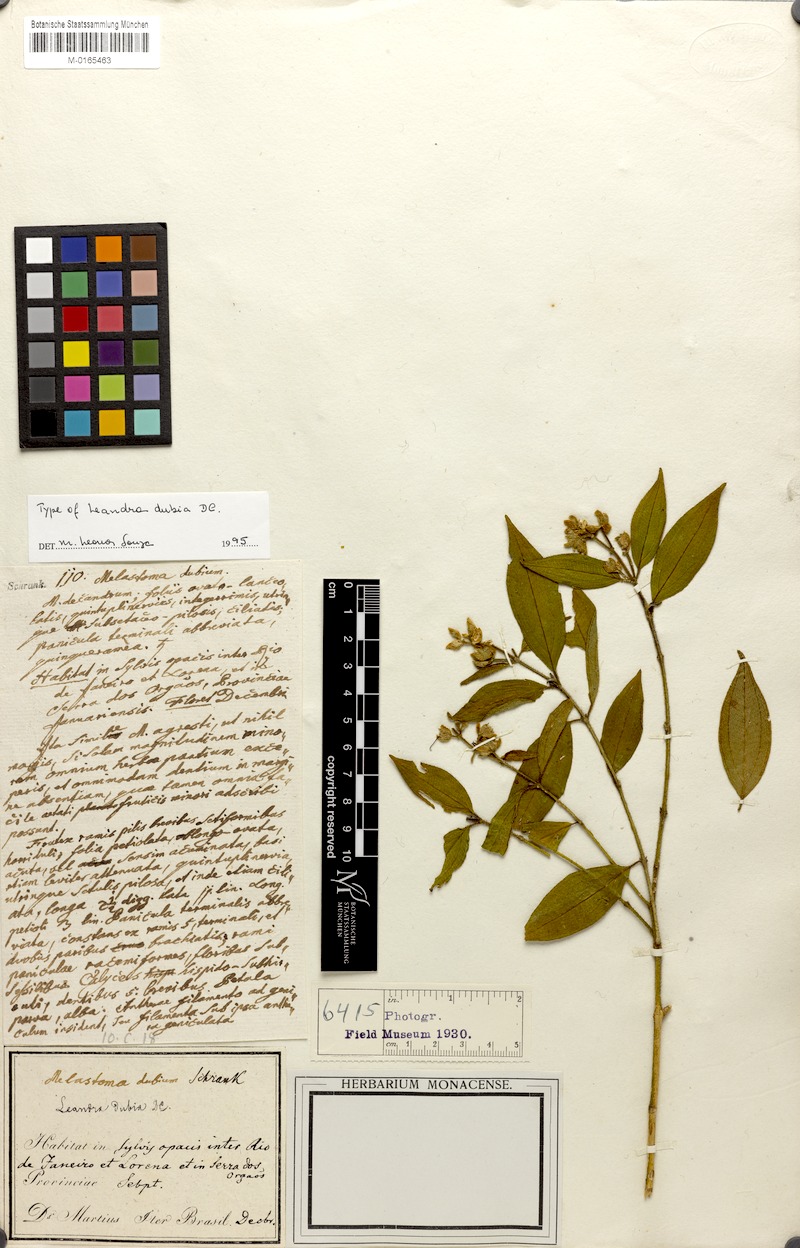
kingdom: Plantae
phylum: Tracheophyta
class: Magnoliopsida
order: Myrtales
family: Melastomataceae
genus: Miconia
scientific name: Miconia dubia
